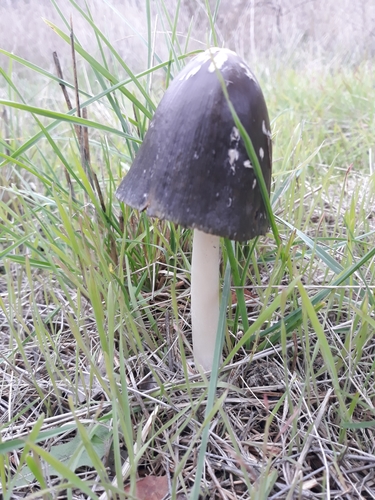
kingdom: Fungi
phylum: Basidiomycota
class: Agaricomycetes
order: Agaricales
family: Psathyrellaceae
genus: Coprinopsis
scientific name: Coprinopsis picacea
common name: Magpie inkcap
